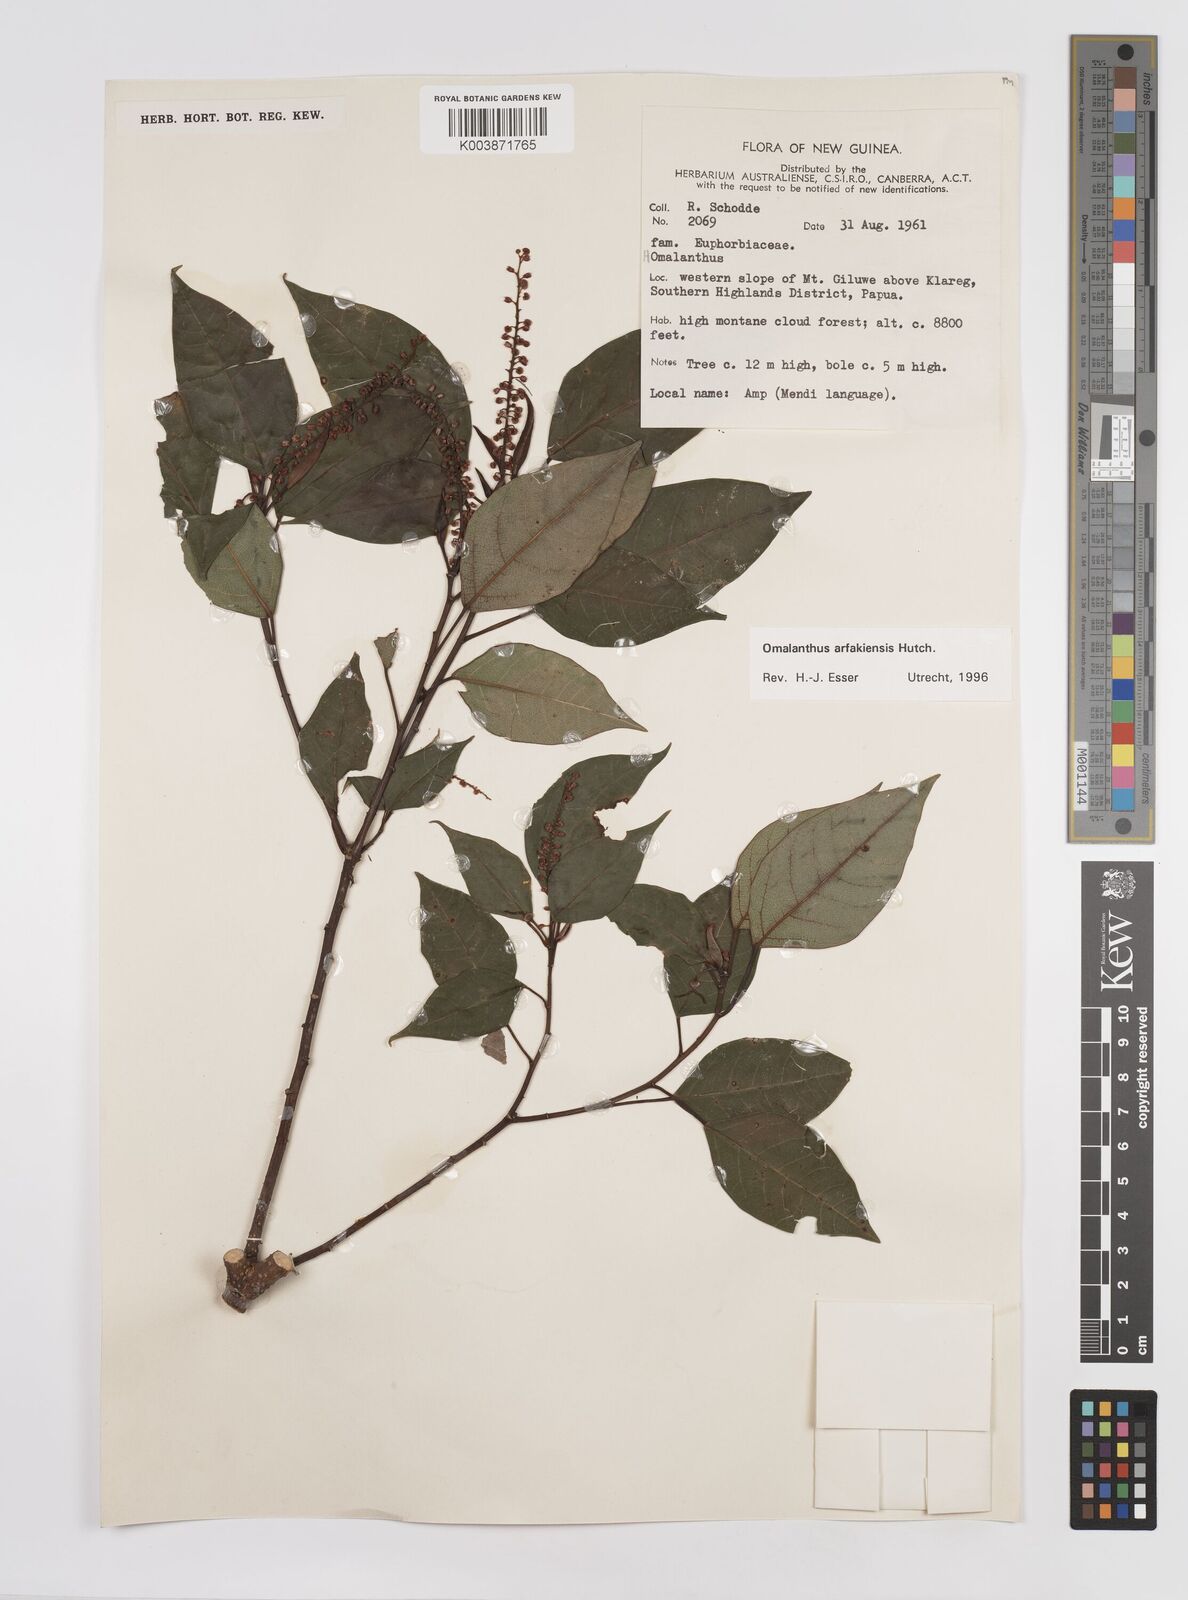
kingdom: Plantae
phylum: Tracheophyta
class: Magnoliopsida
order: Malpighiales
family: Euphorbiaceae
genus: Homalanthus
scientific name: Homalanthus arfakiensis
